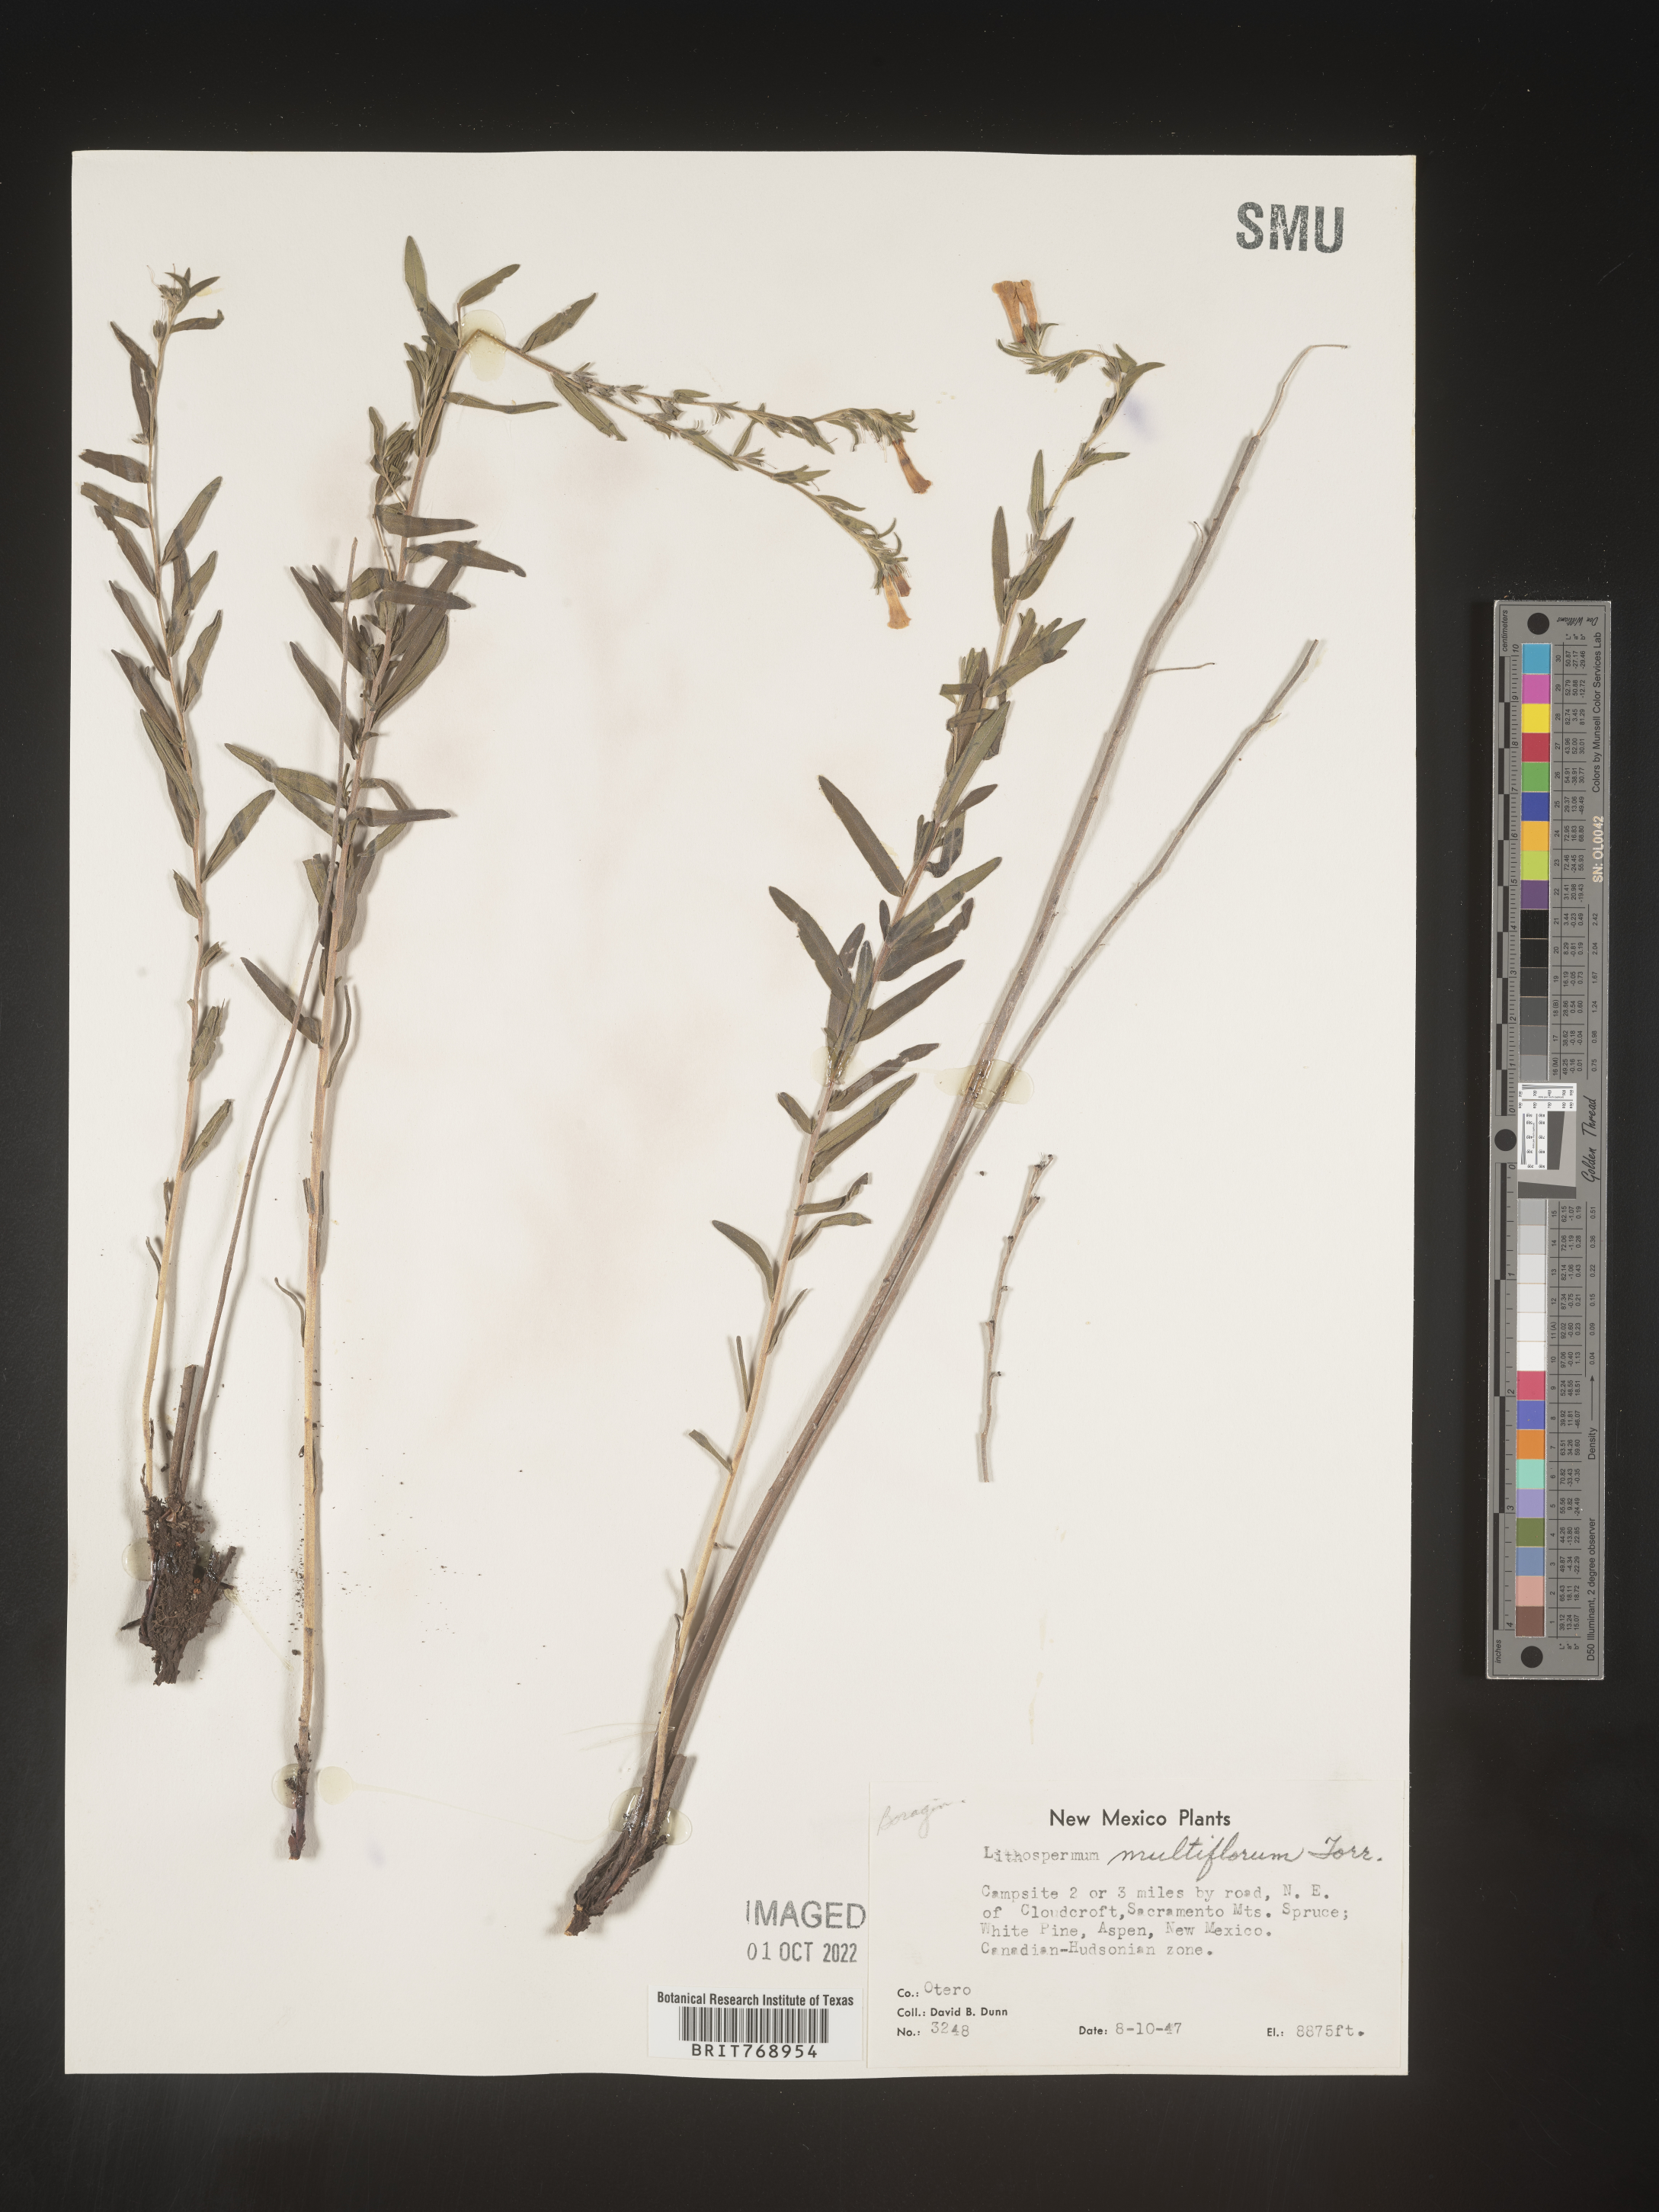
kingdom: Plantae
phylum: Tracheophyta
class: Magnoliopsida
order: Boraginales
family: Boraginaceae
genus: Lithospermum
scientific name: Lithospermum multiflorum
